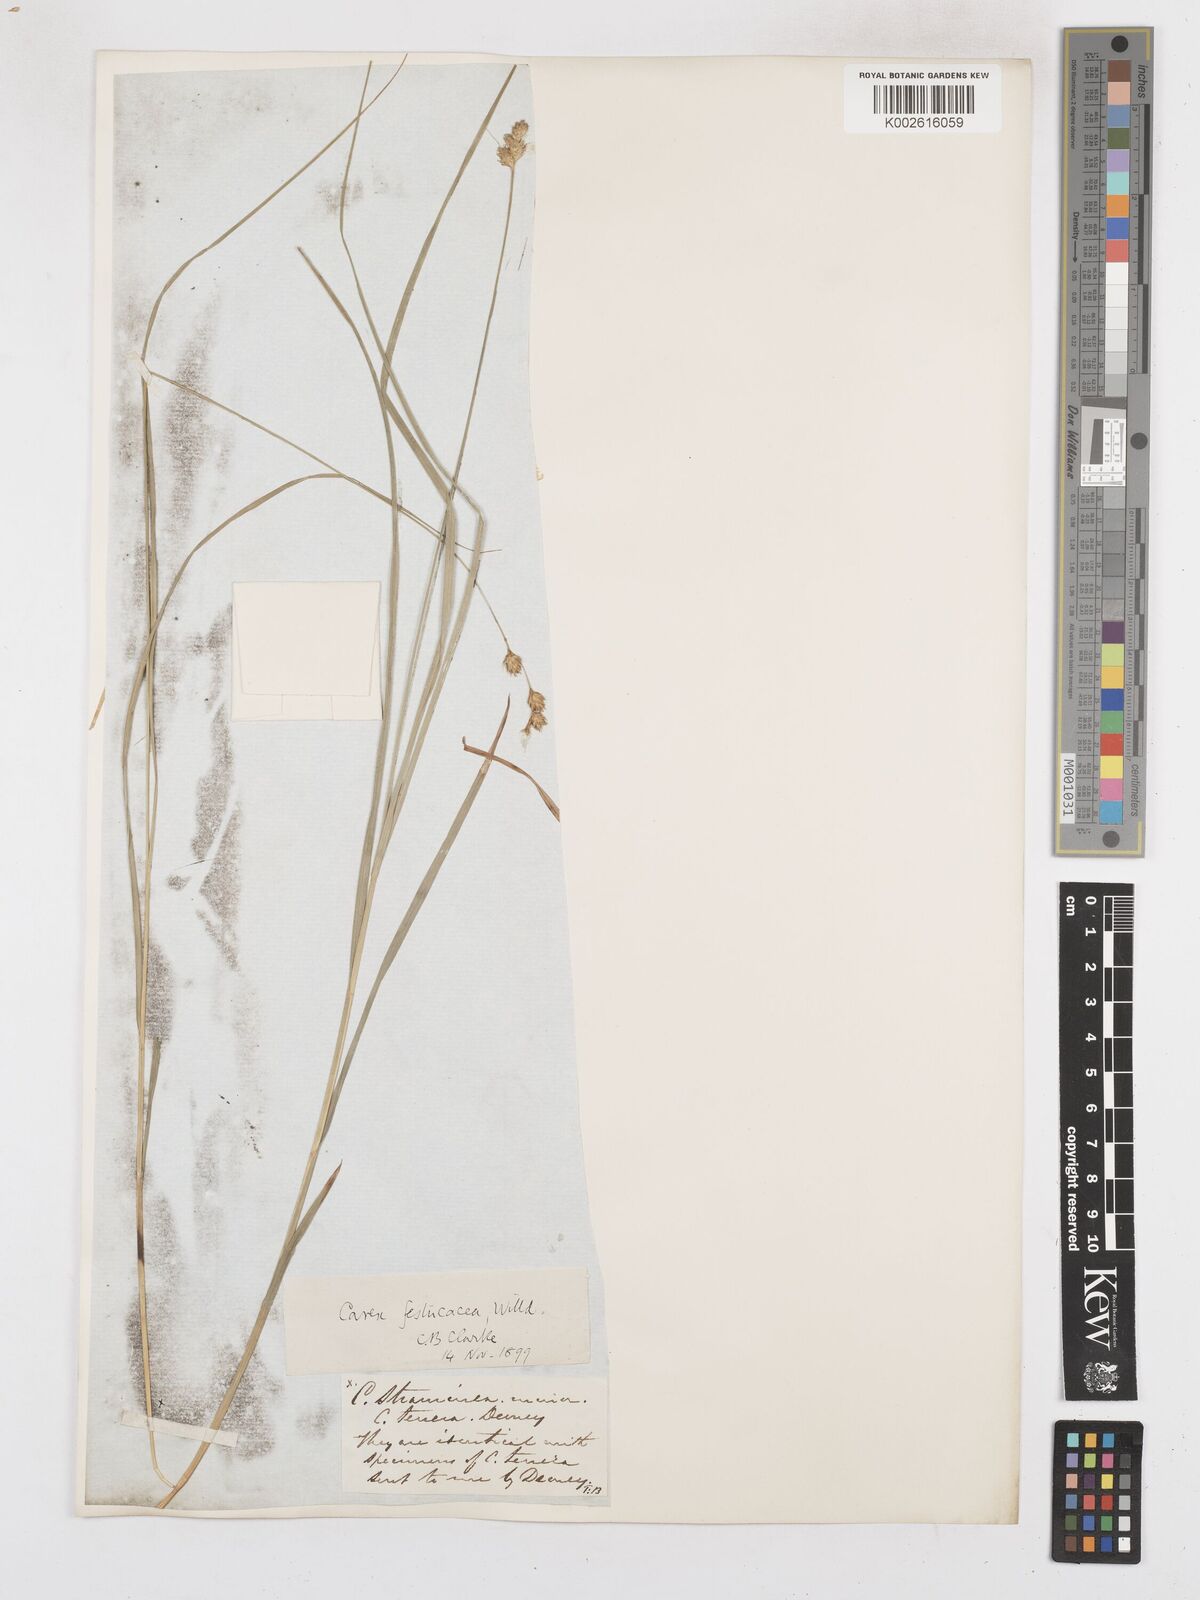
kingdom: Plantae
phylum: Tracheophyta
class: Liliopsida
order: Poales
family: Cyperaceae
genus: Carex
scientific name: Carex festucacea
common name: Fescue oval sedge
